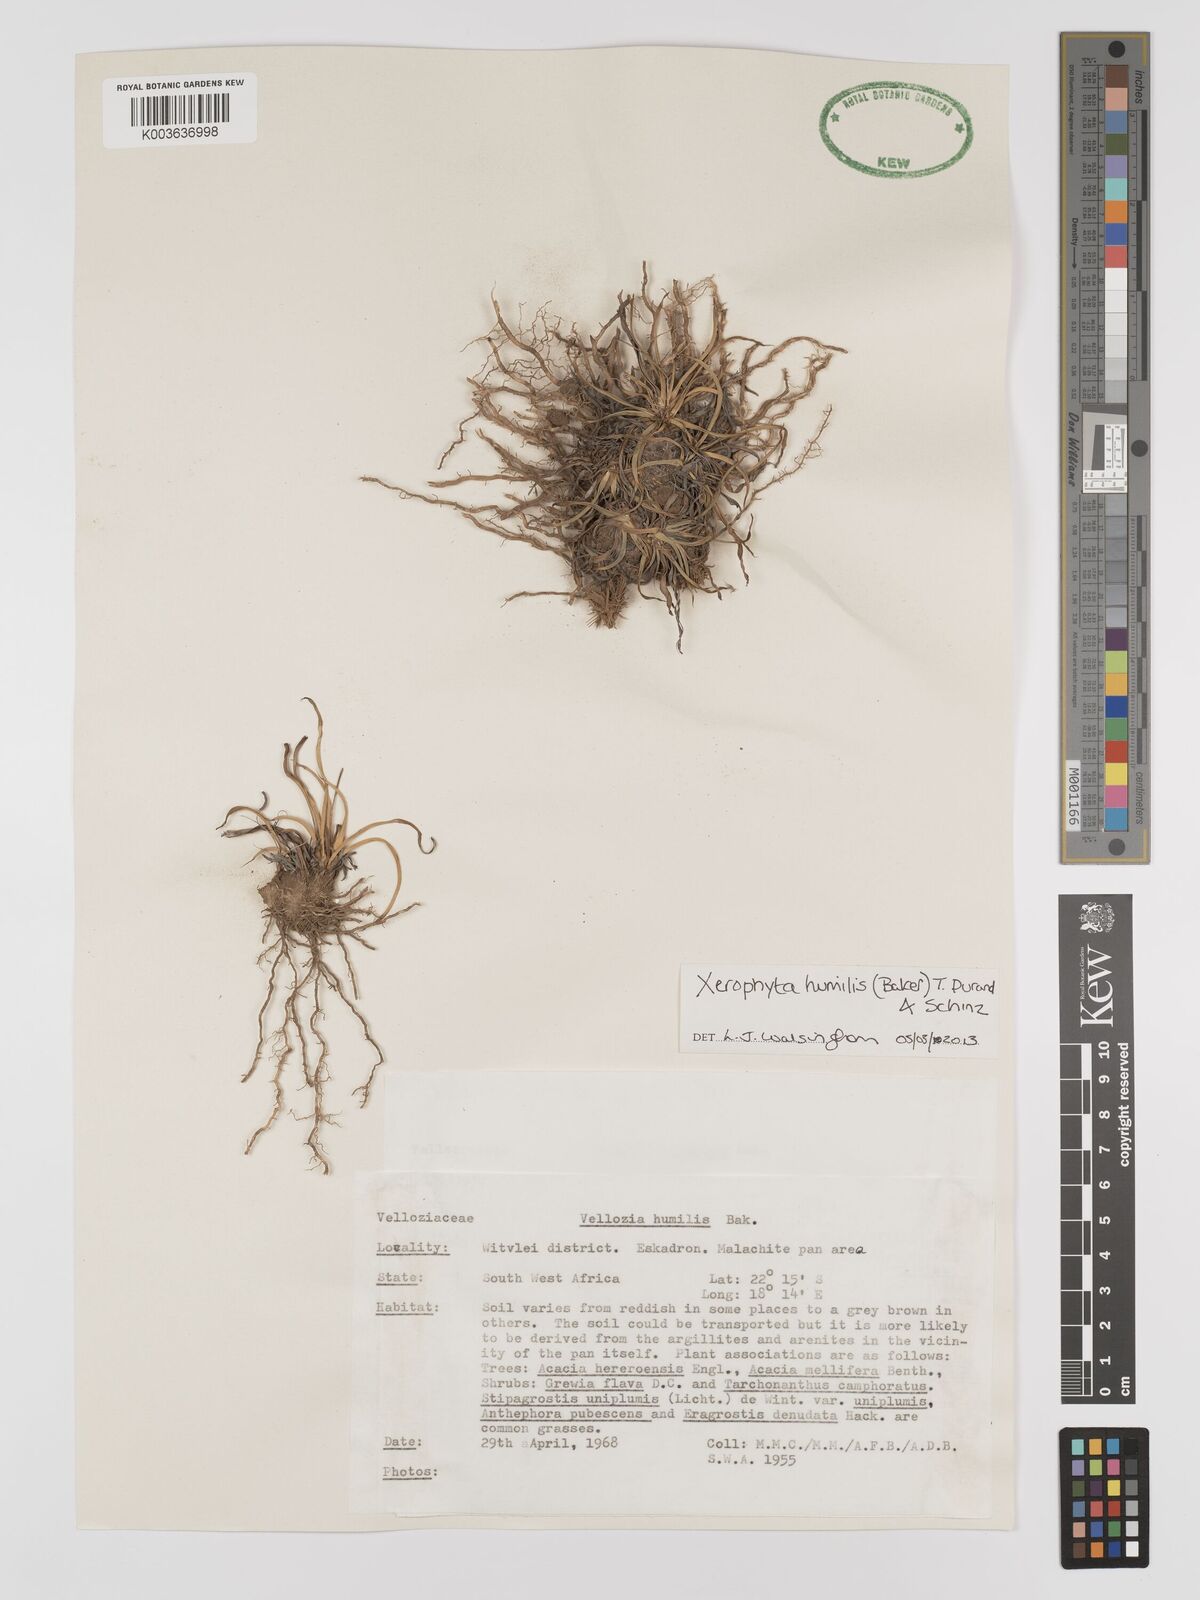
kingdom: Plantae
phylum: Tracheophyta
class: Liliopsida
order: Pandanales
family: Velloziaceae
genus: Xerophyta
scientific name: Xerophyta humilis
